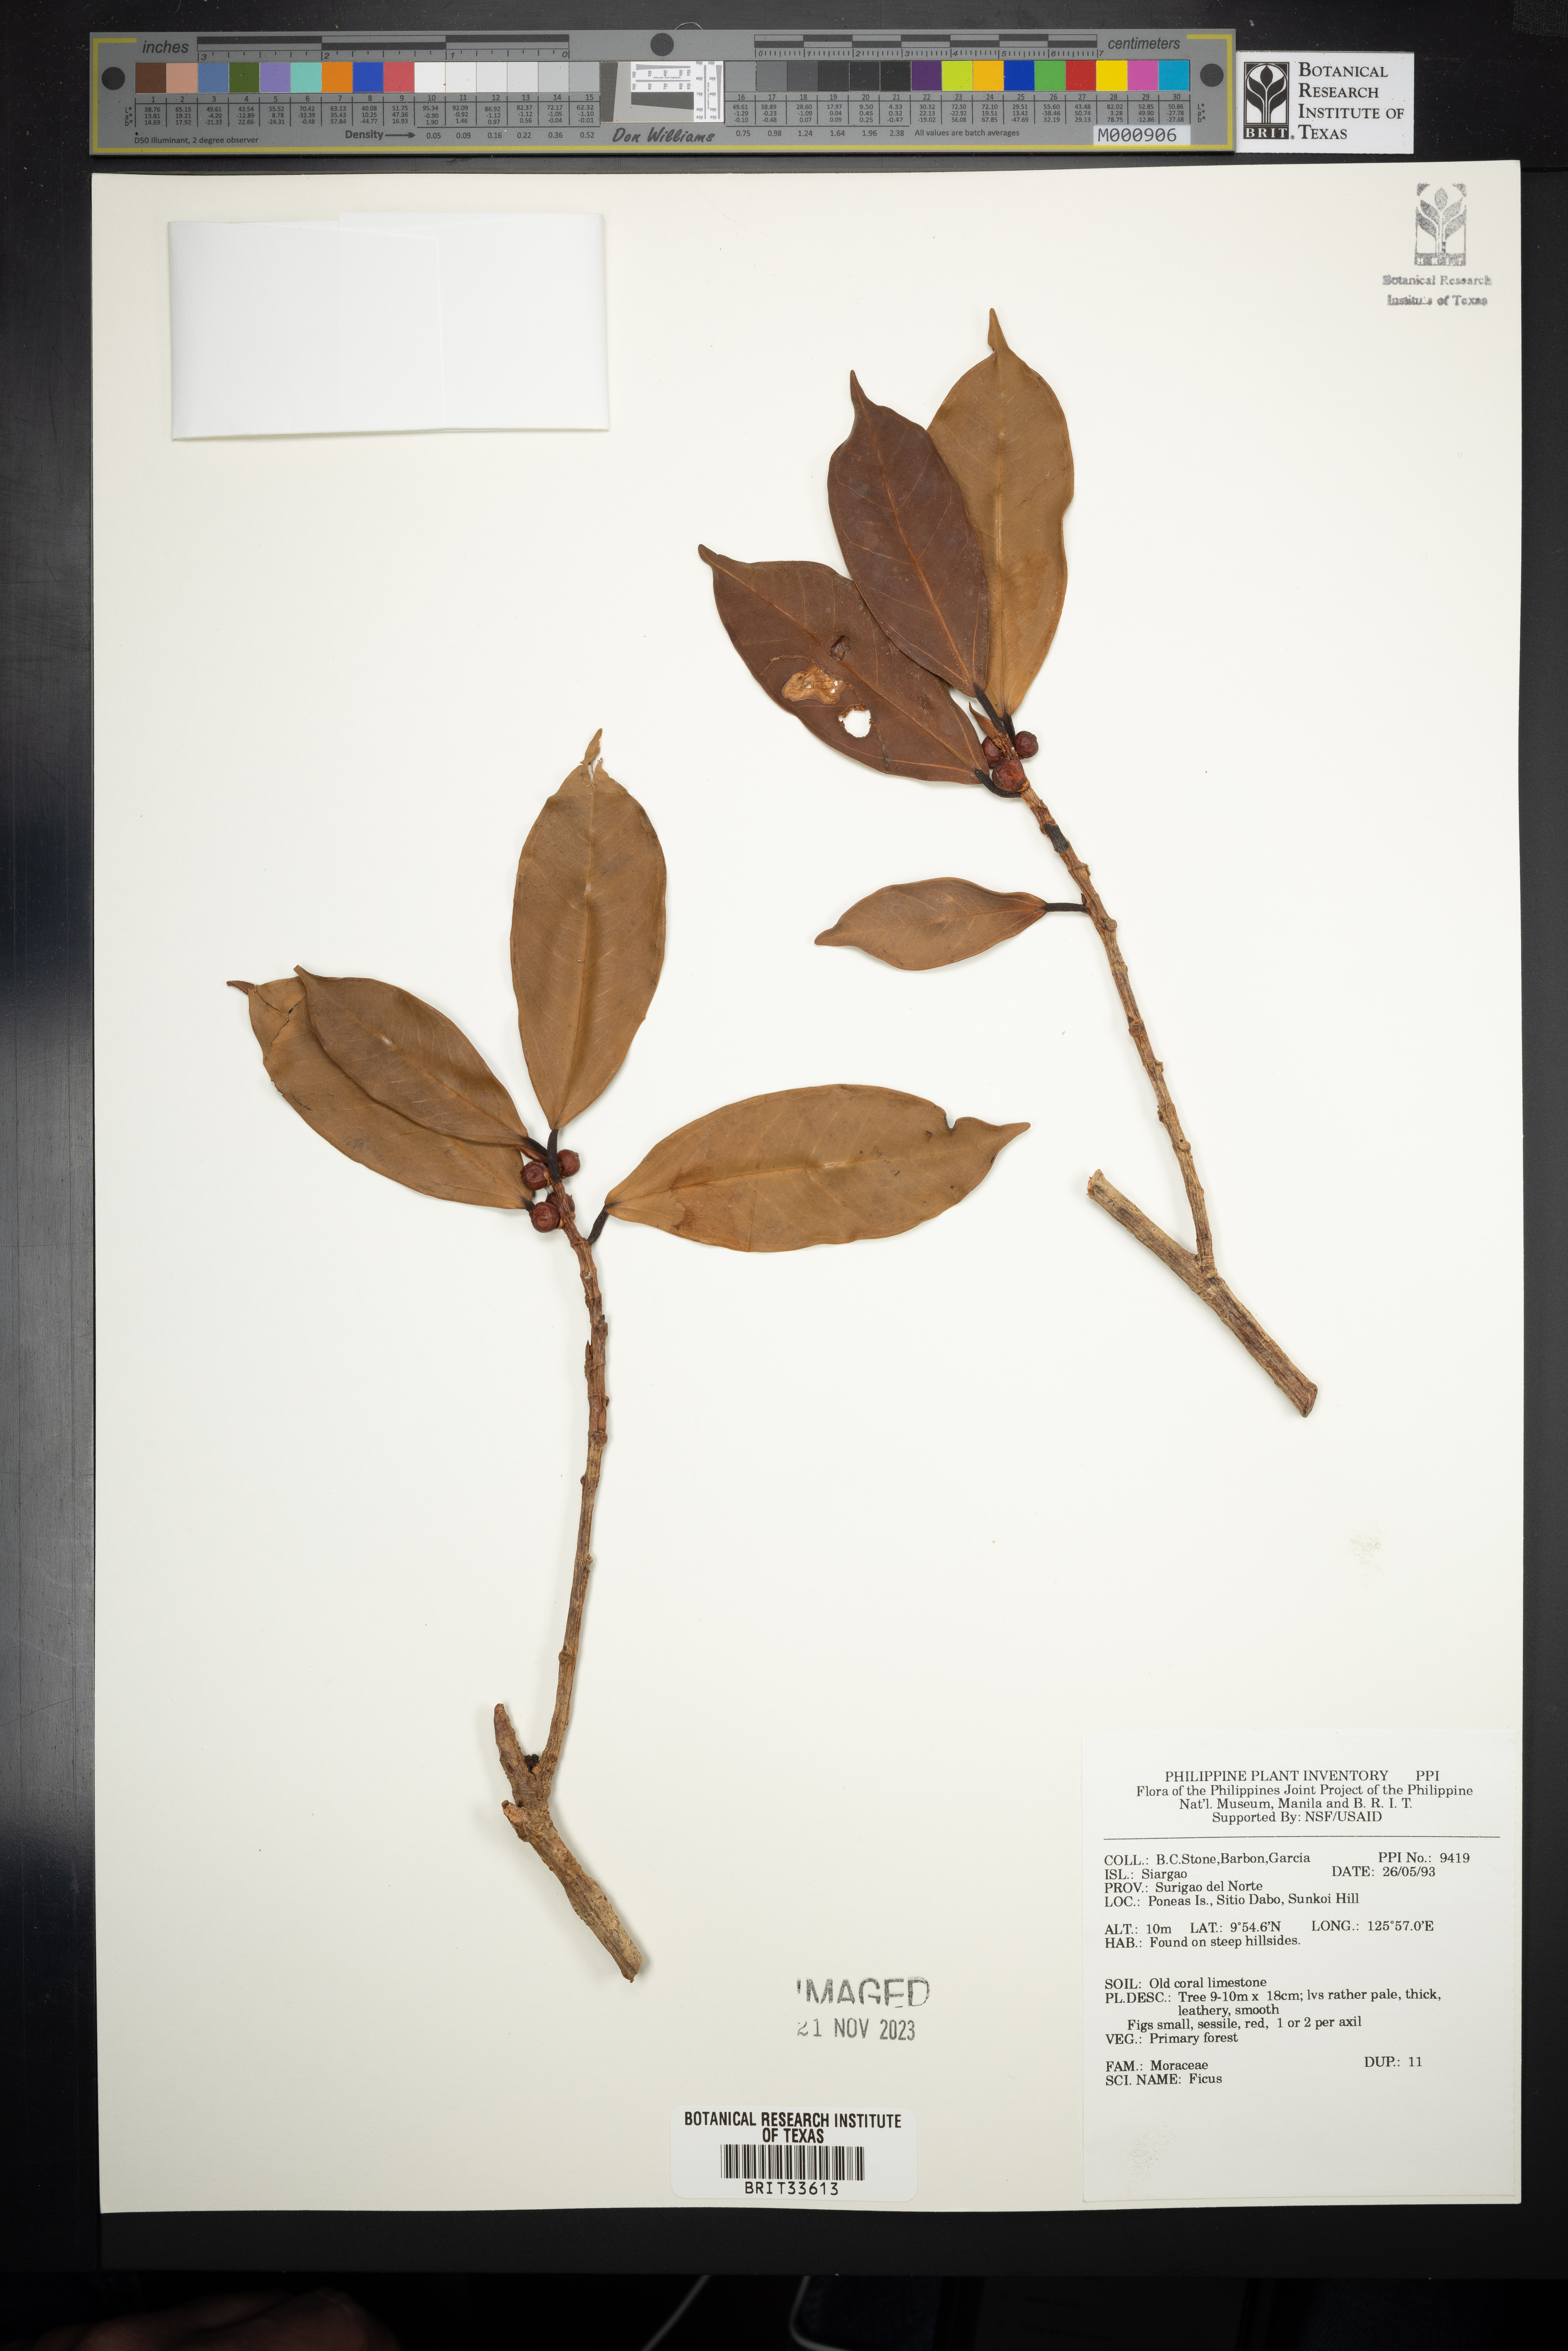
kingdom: Plantae
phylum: Tracheophyta
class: Magnoliopsida
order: Rosales
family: Moraceae
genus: Ficus
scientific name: Ficus
